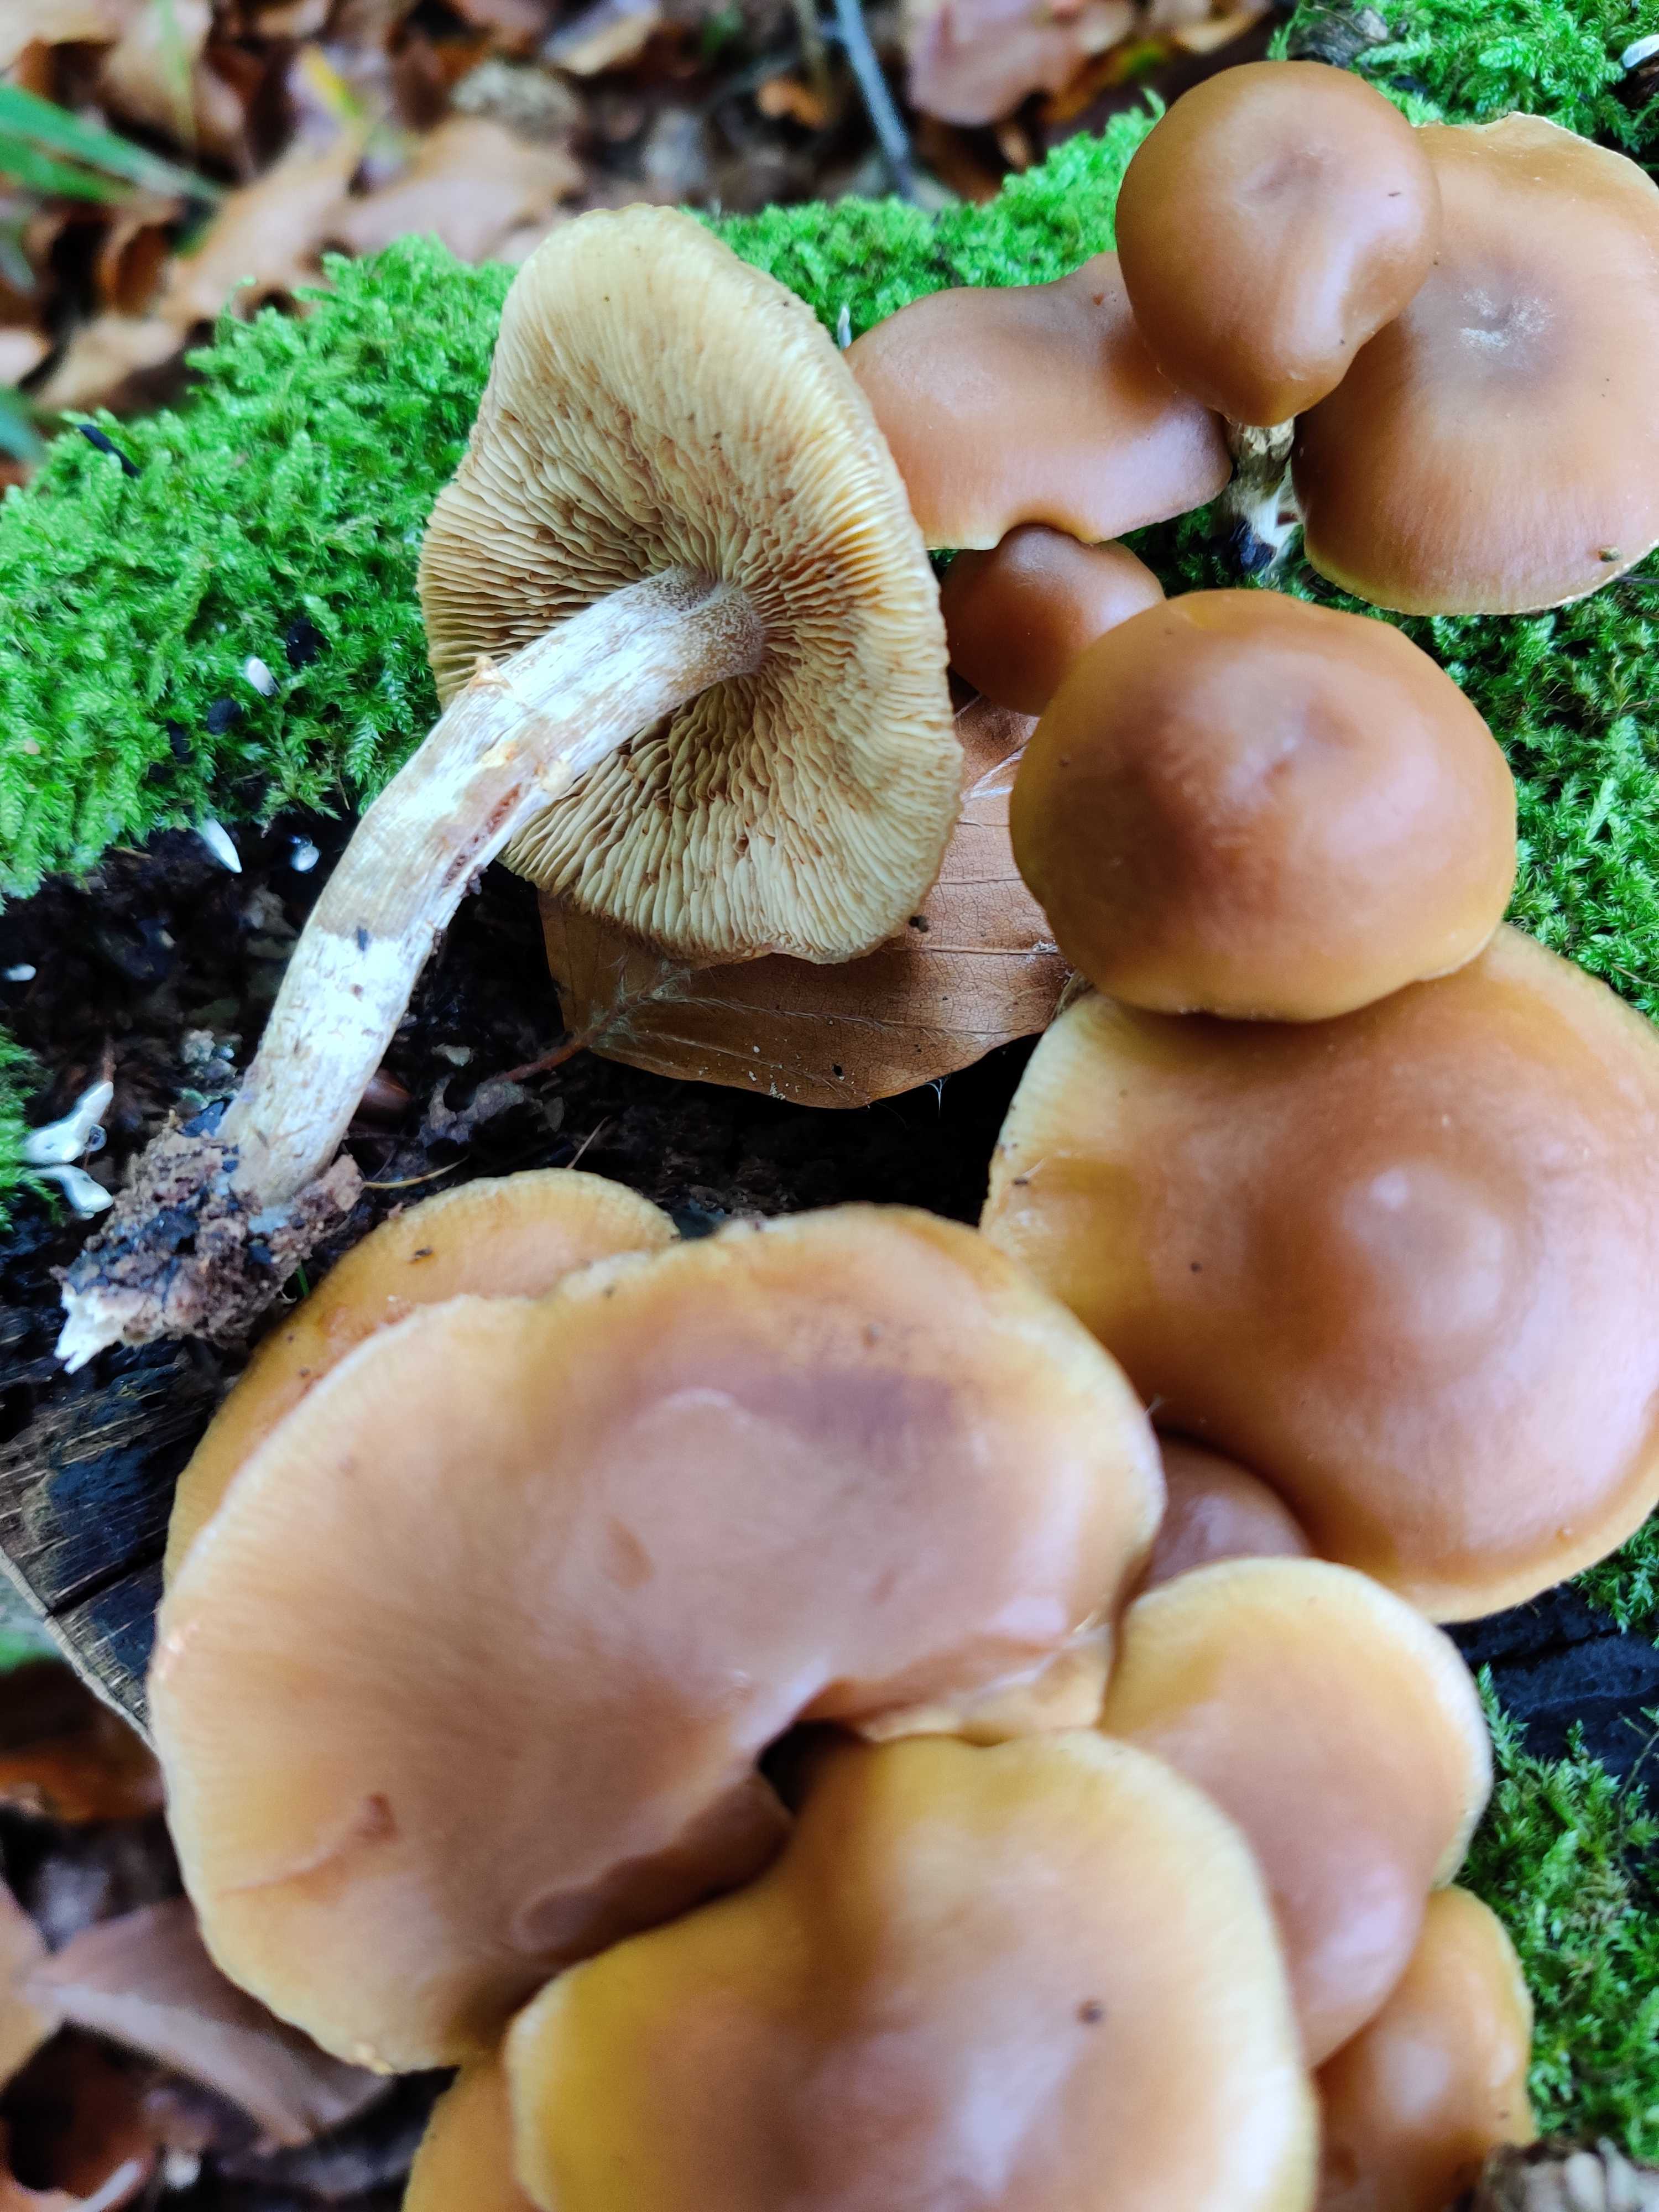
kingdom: Fungi
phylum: Basidiomycota
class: Agaricomycetes
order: Agaricales
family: Hymenogastraceae
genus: Galerina
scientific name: Galerina marginata
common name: randbæltet hjelmhat
